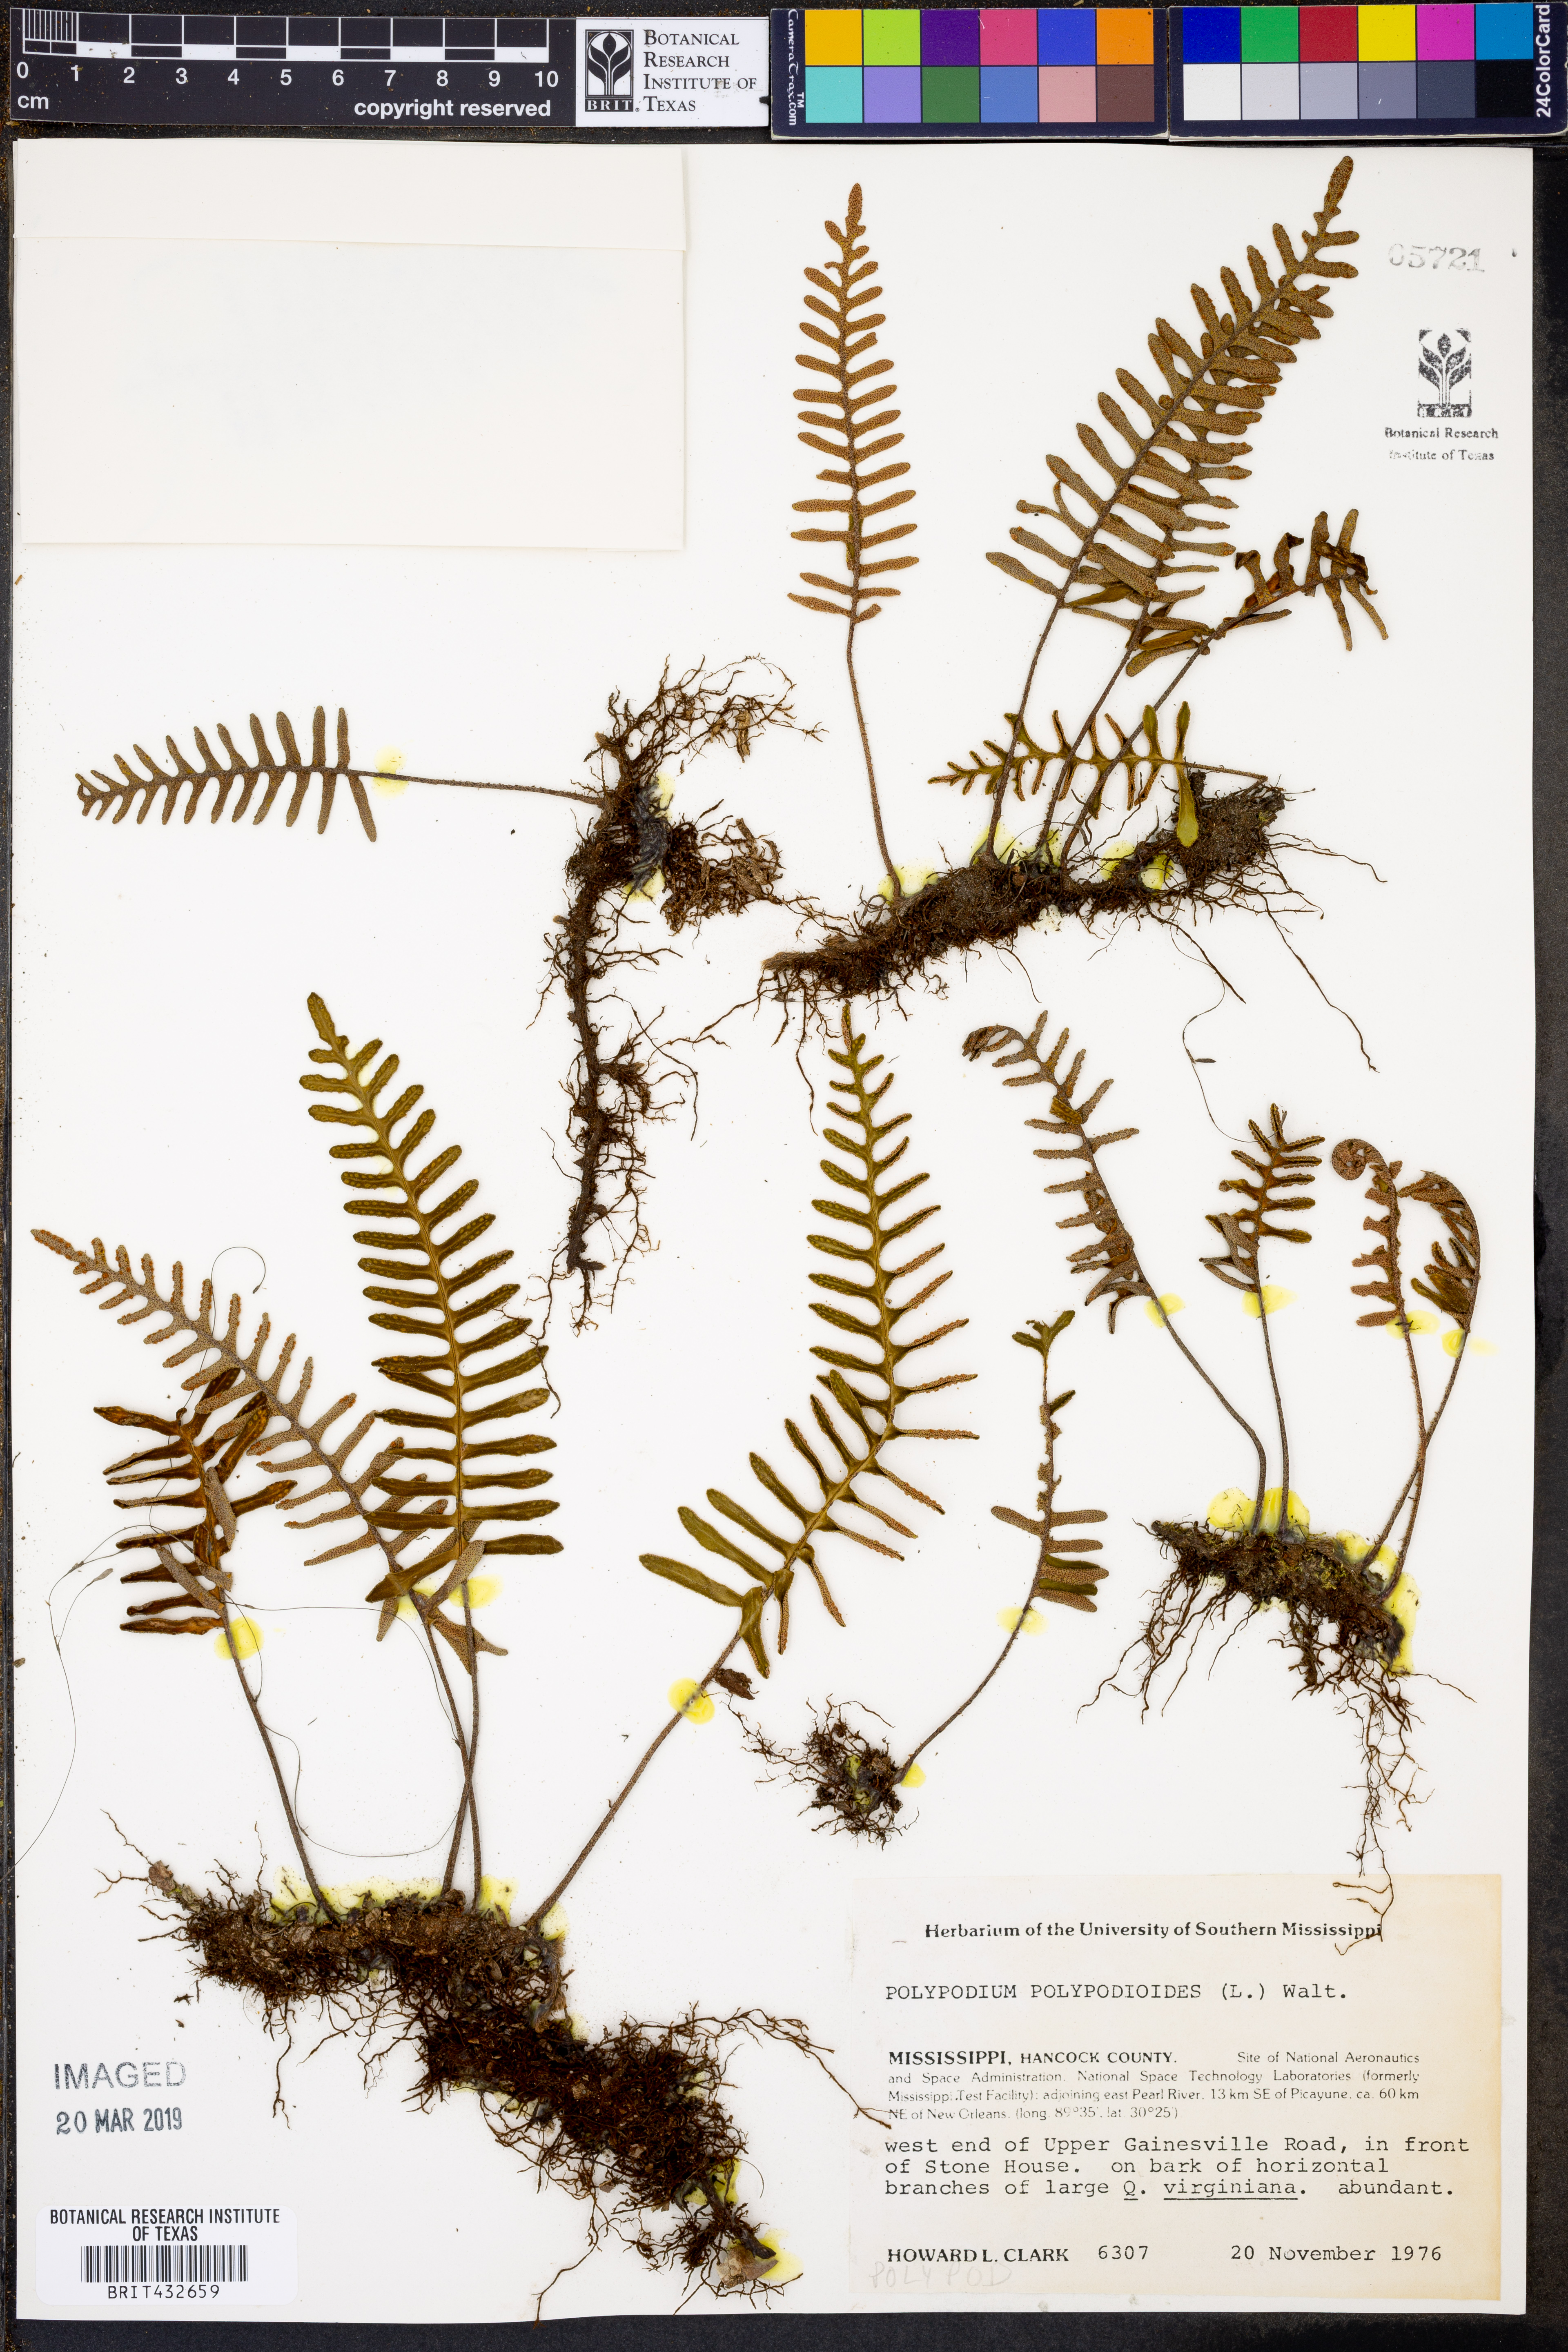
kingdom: Plantae
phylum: Tracheophyta
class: Polypodiopsida
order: Polypodiales
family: Polypodiaceae
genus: Pleopeltis
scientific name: Pleopeltis polypodioides
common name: Resurrection fern
